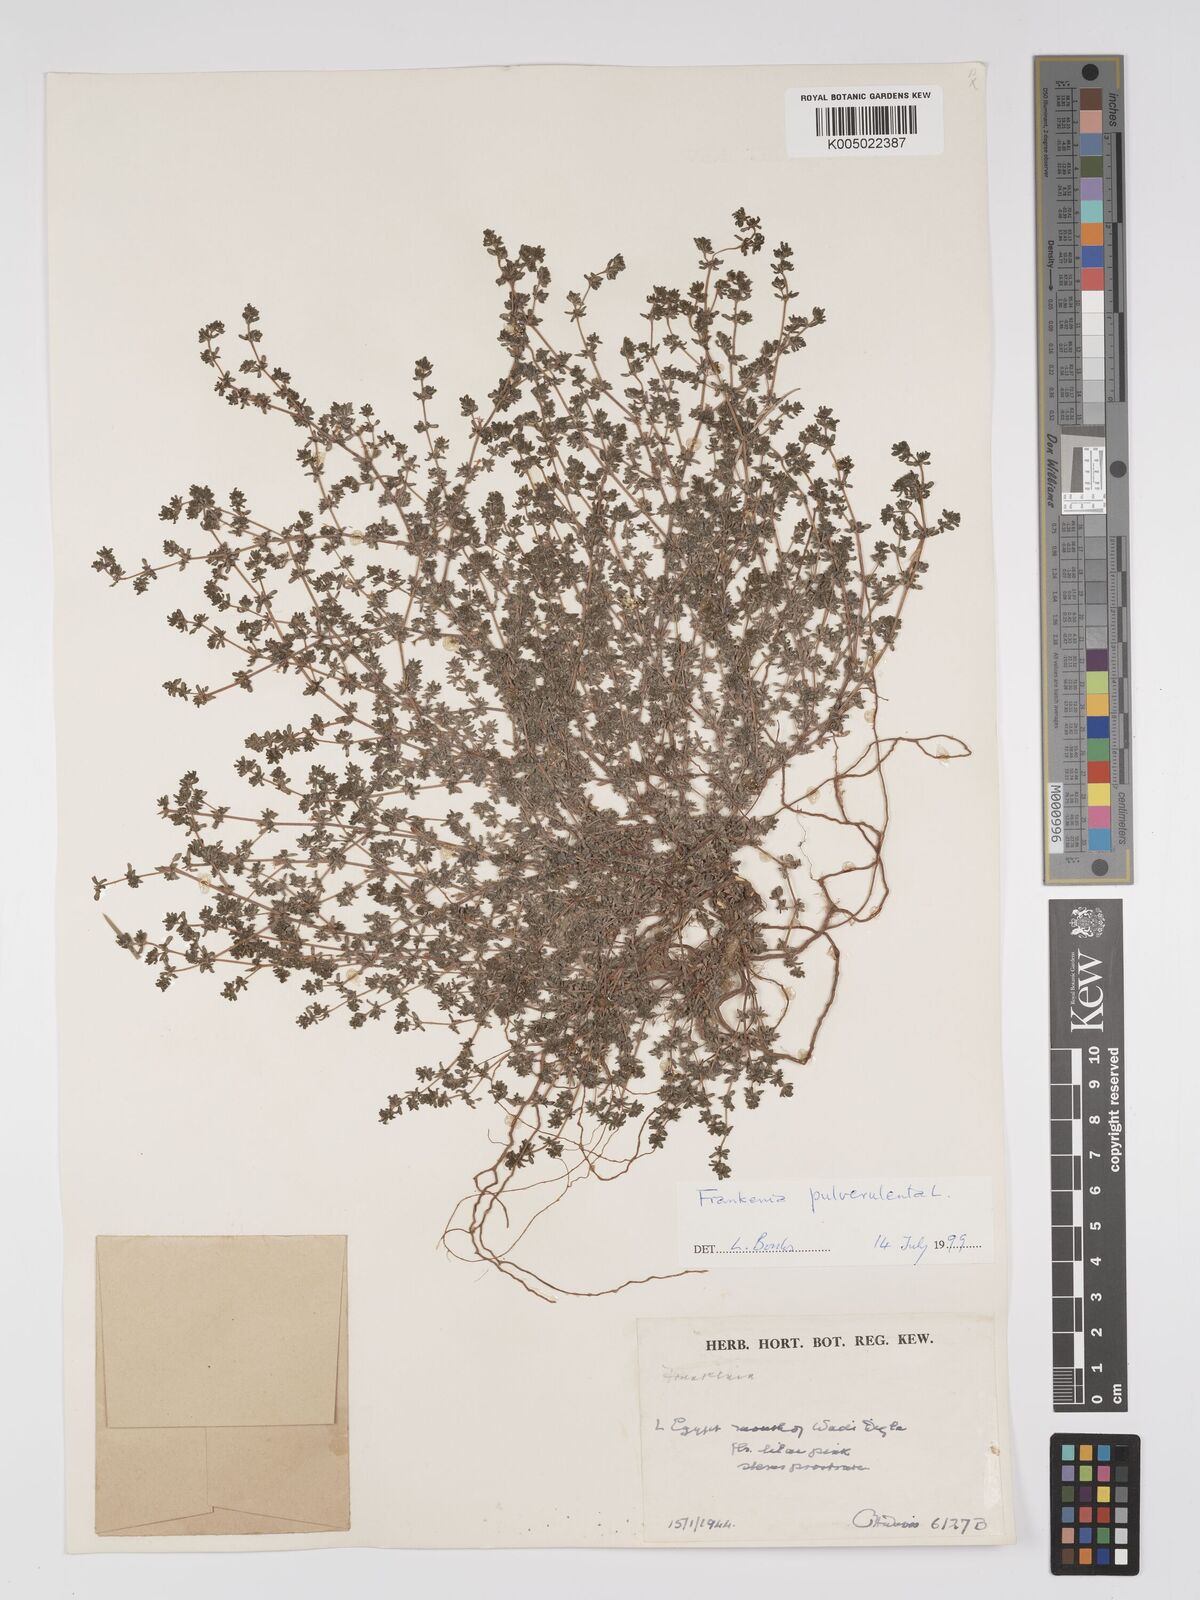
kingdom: Plantae
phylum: Tracheophyta
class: Magnoliopsida
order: Caryophyllales
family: Frankeniaceae
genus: Frankenia
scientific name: Frankenia pulverulenta
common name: European seaheath
